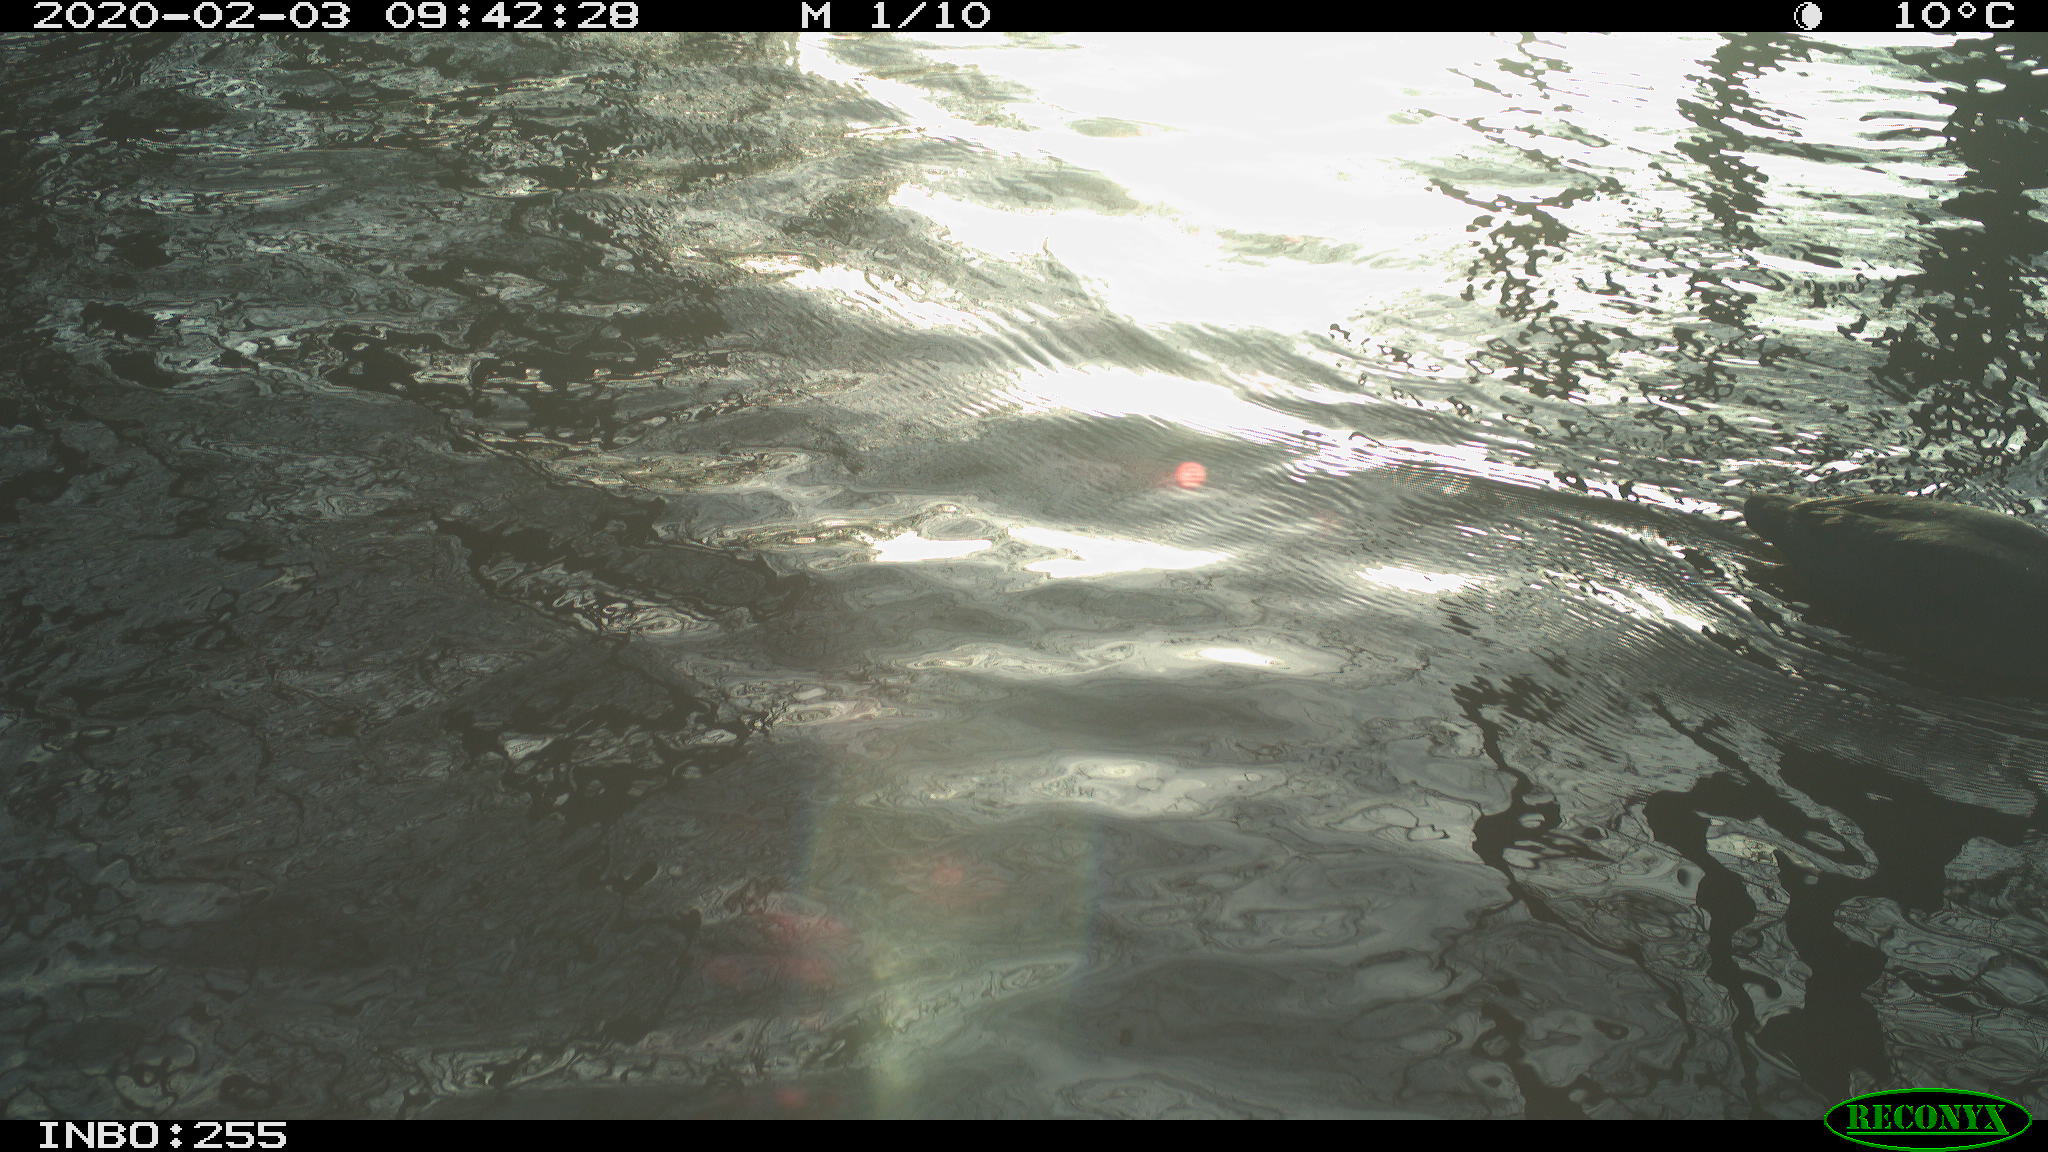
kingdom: Animalia
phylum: Chordata
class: Aves
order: Gruiformes
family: Rallidae
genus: Fulica
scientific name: Fulica atra
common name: Eurasian coot
